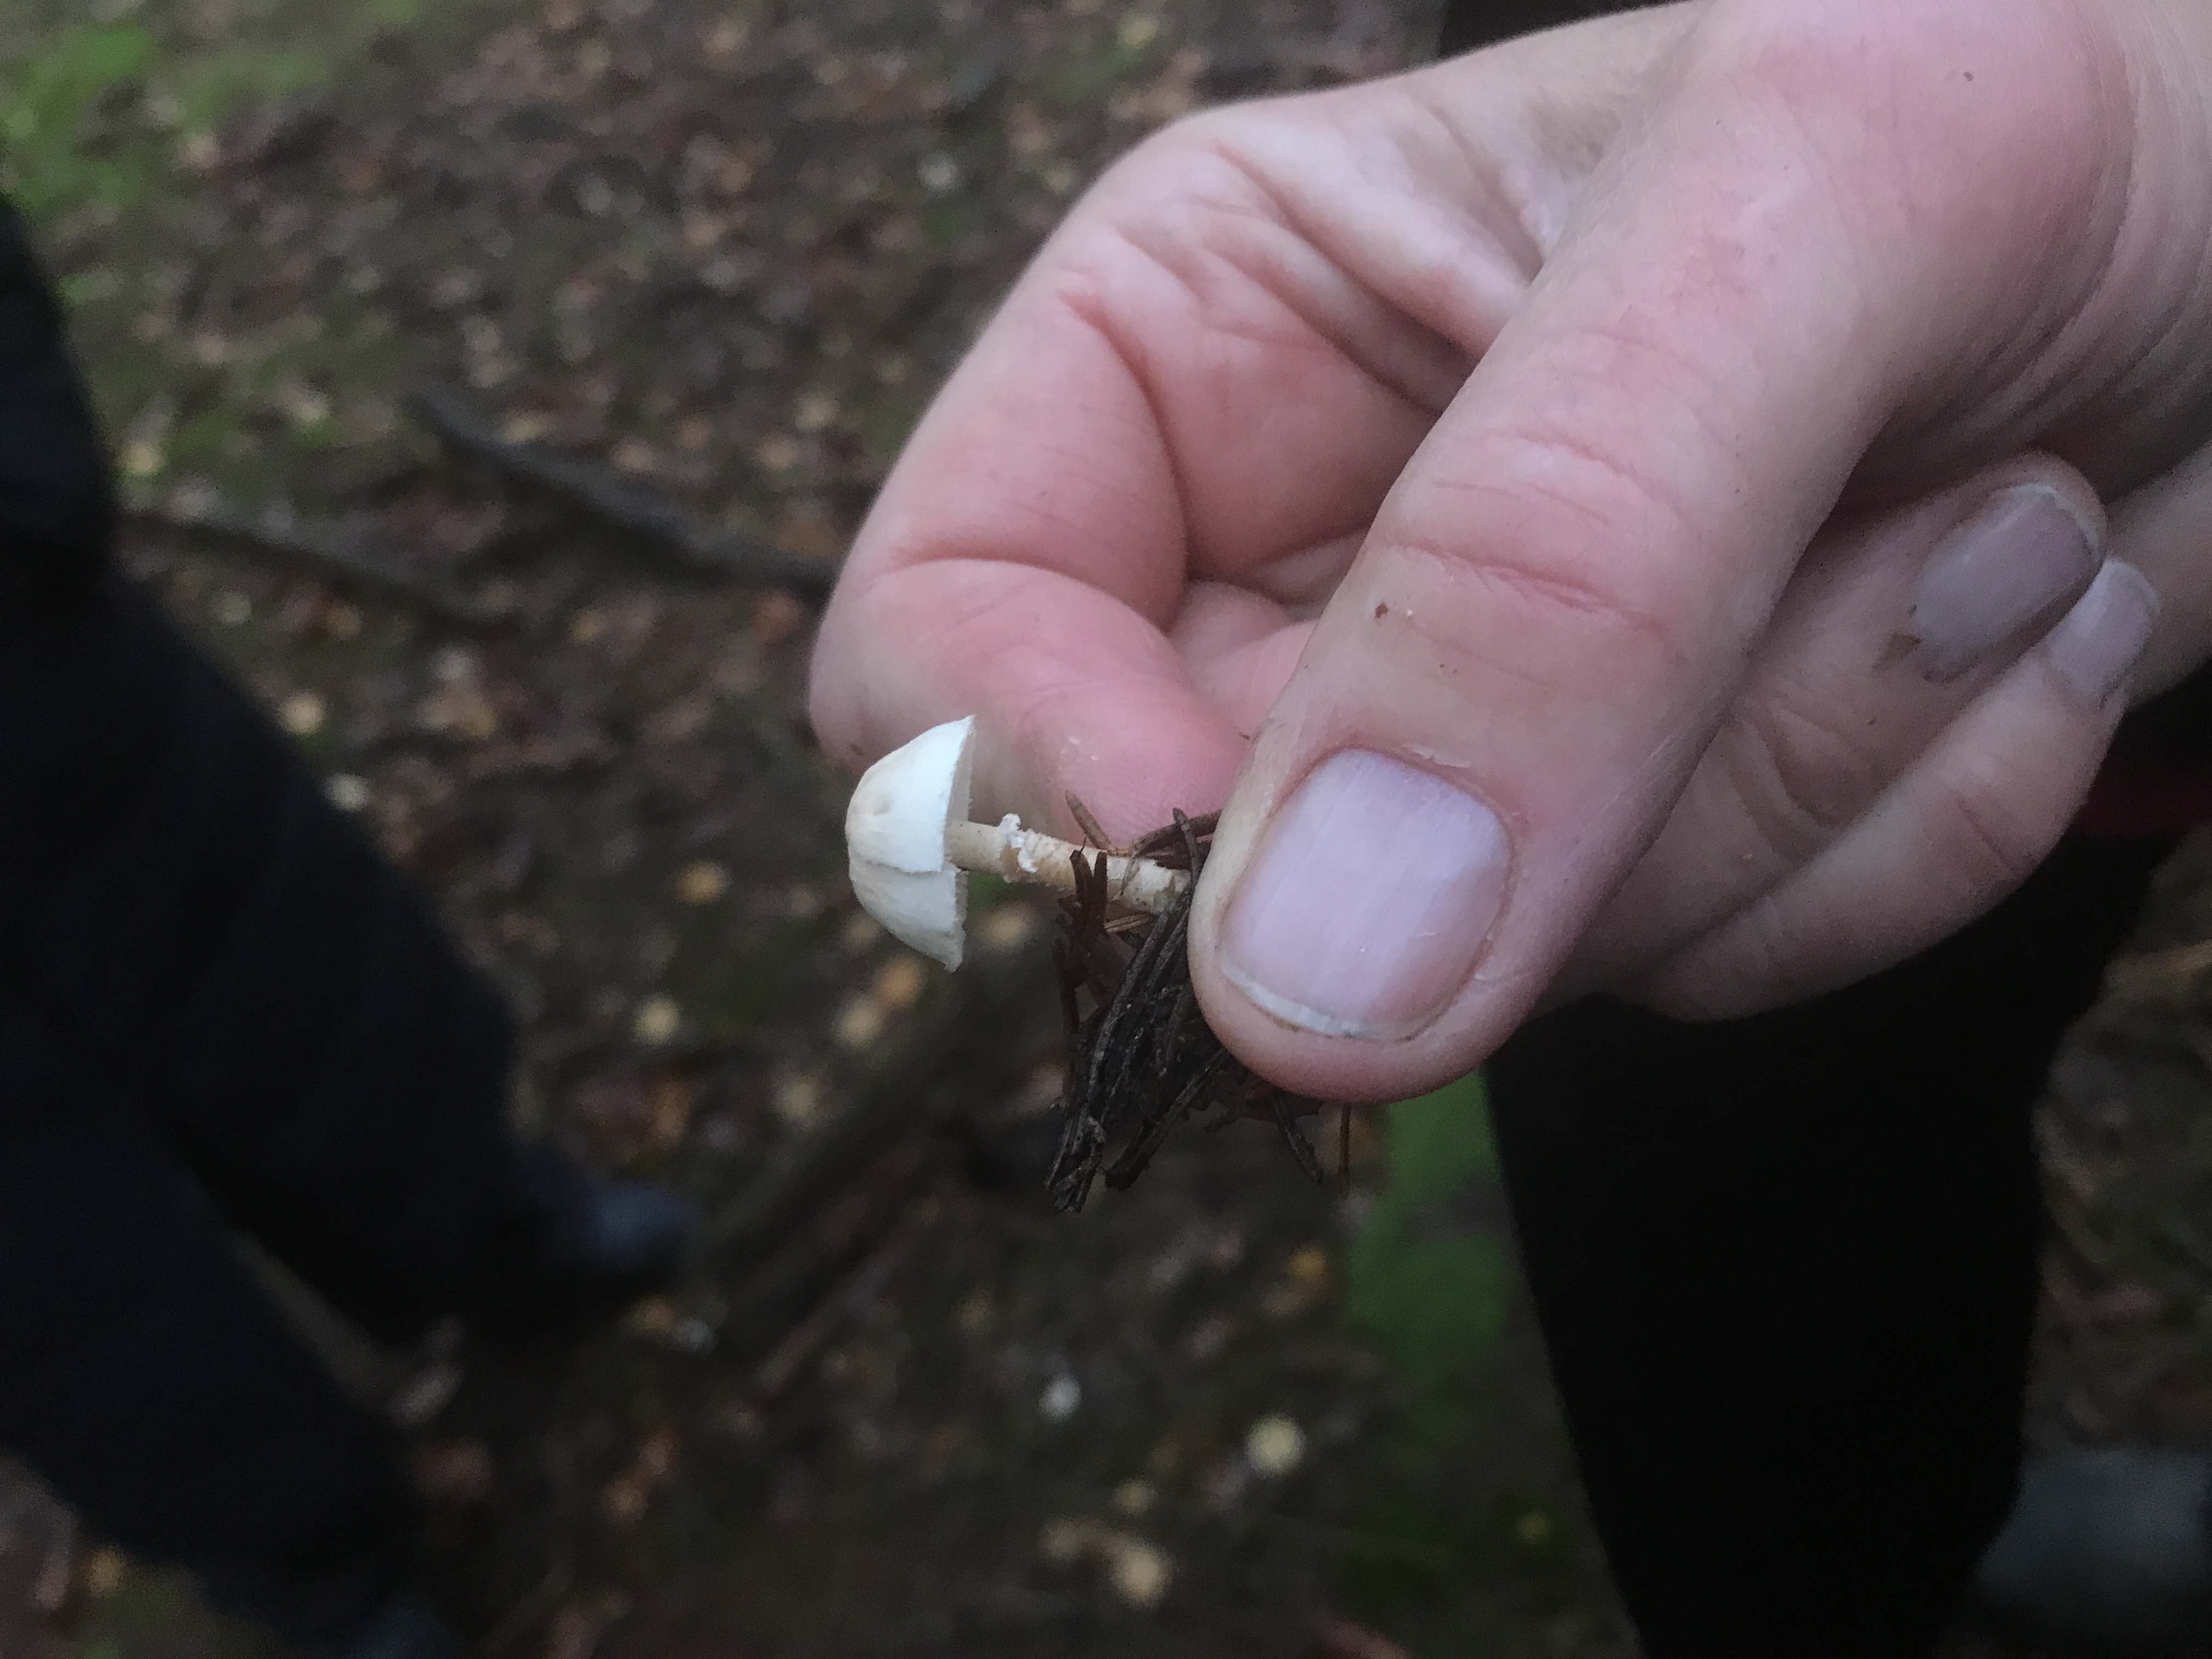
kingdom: Fungi
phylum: Basidiomycota
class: Agaricomycetes
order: Agaricales
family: Tricholomataceae
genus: Cystoderma
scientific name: Cystoderma carcharias
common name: rødgrå grynhat
